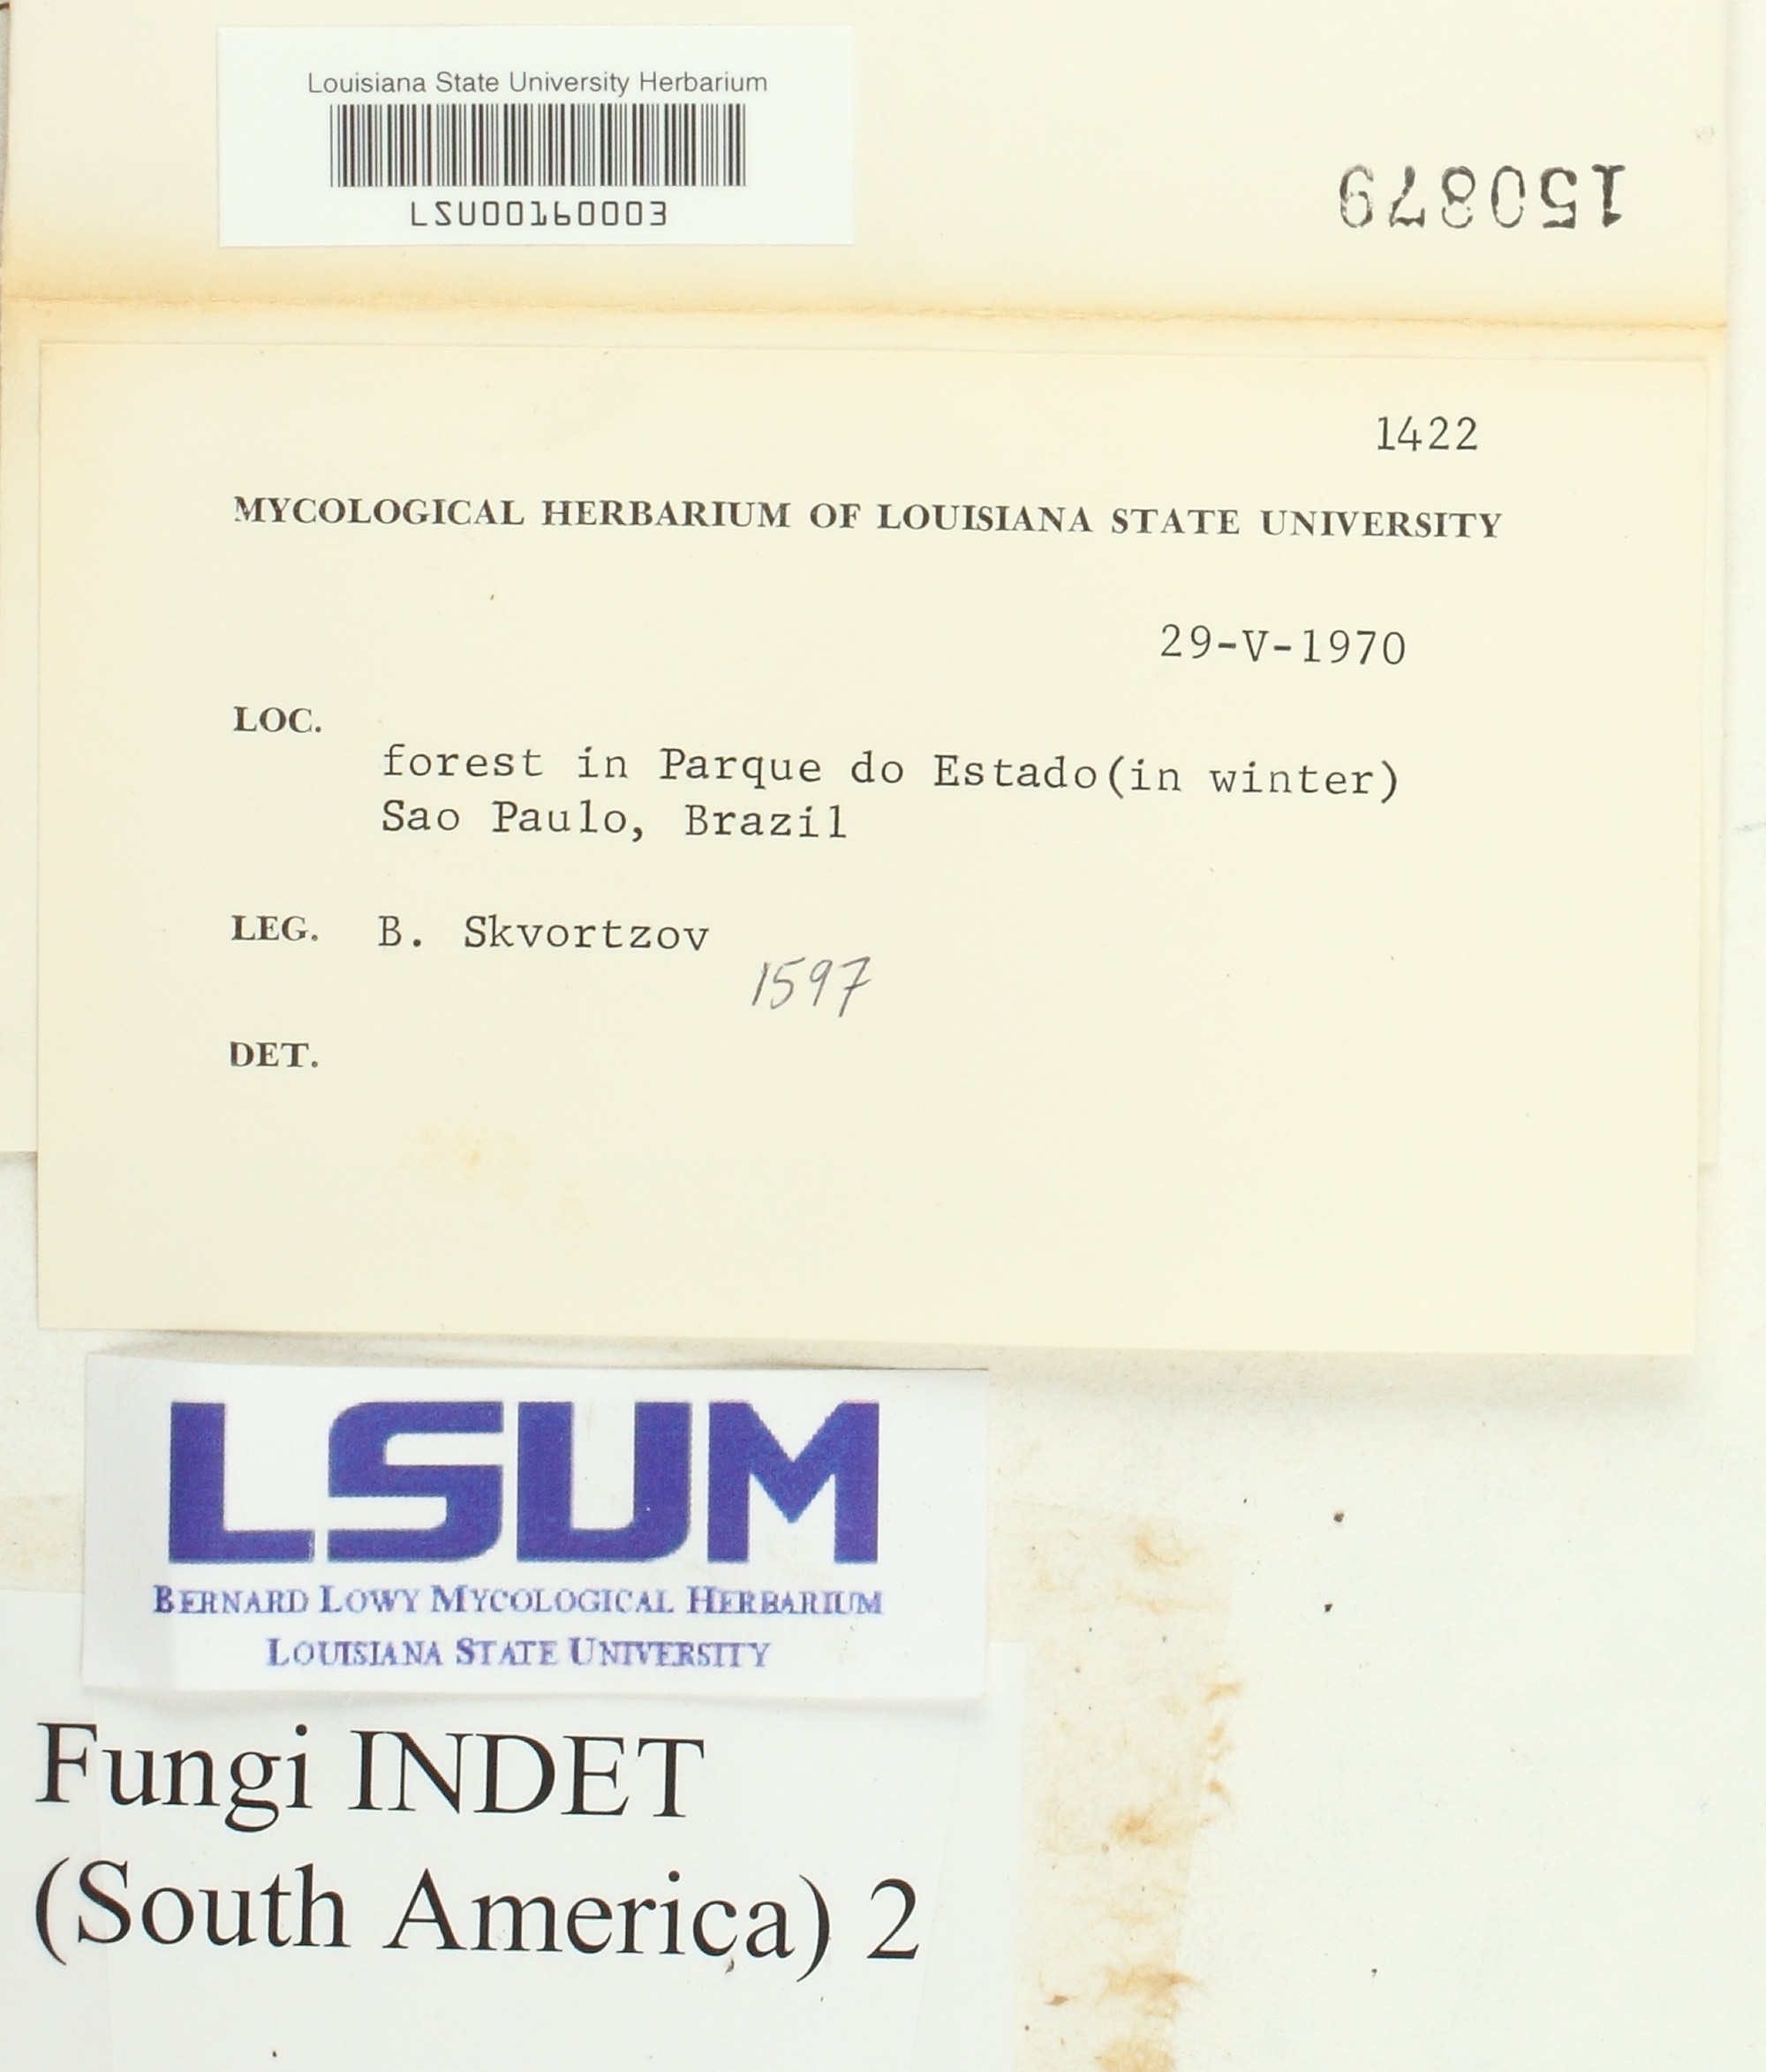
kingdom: Fungi
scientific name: Fungi
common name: Fungi
